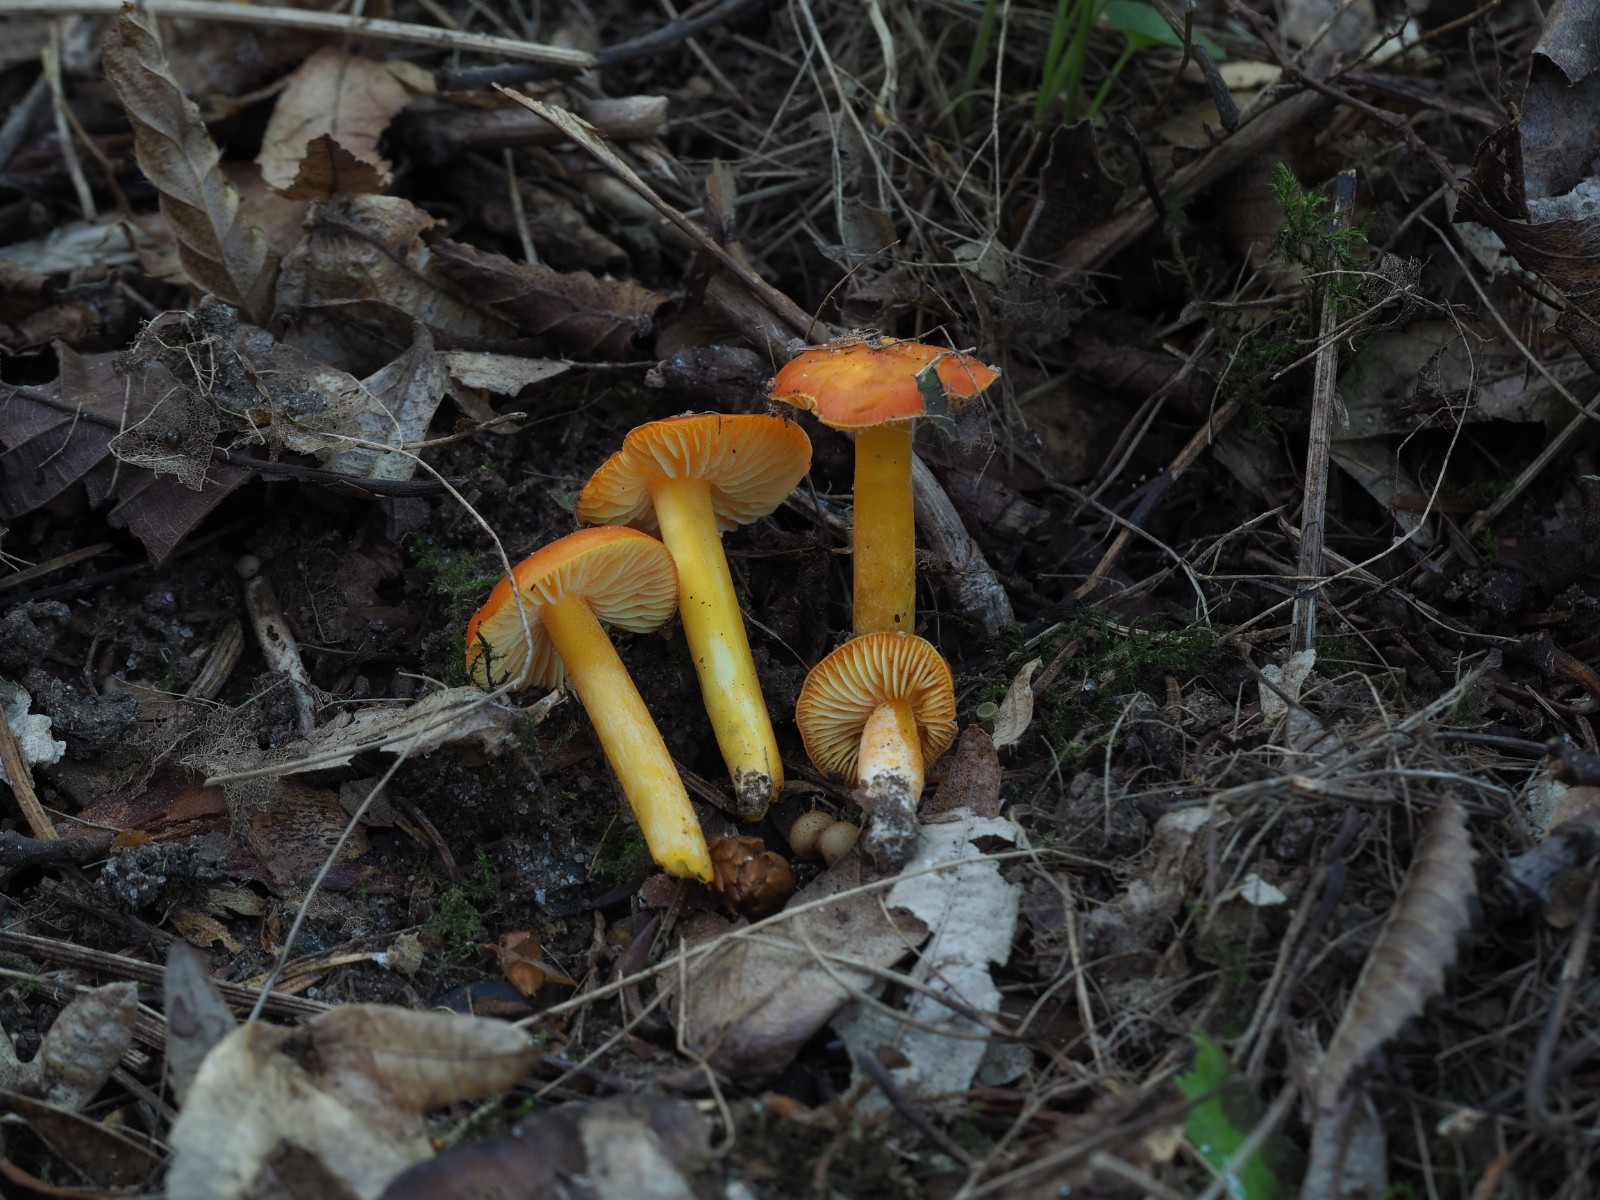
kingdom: Fungi
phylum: Basidiomycota
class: Agaricomycetes
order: Agaricales
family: Hygrophoraceae
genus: Hygrocybe
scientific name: Hygrocybe chlorophana
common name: gul vokshat
